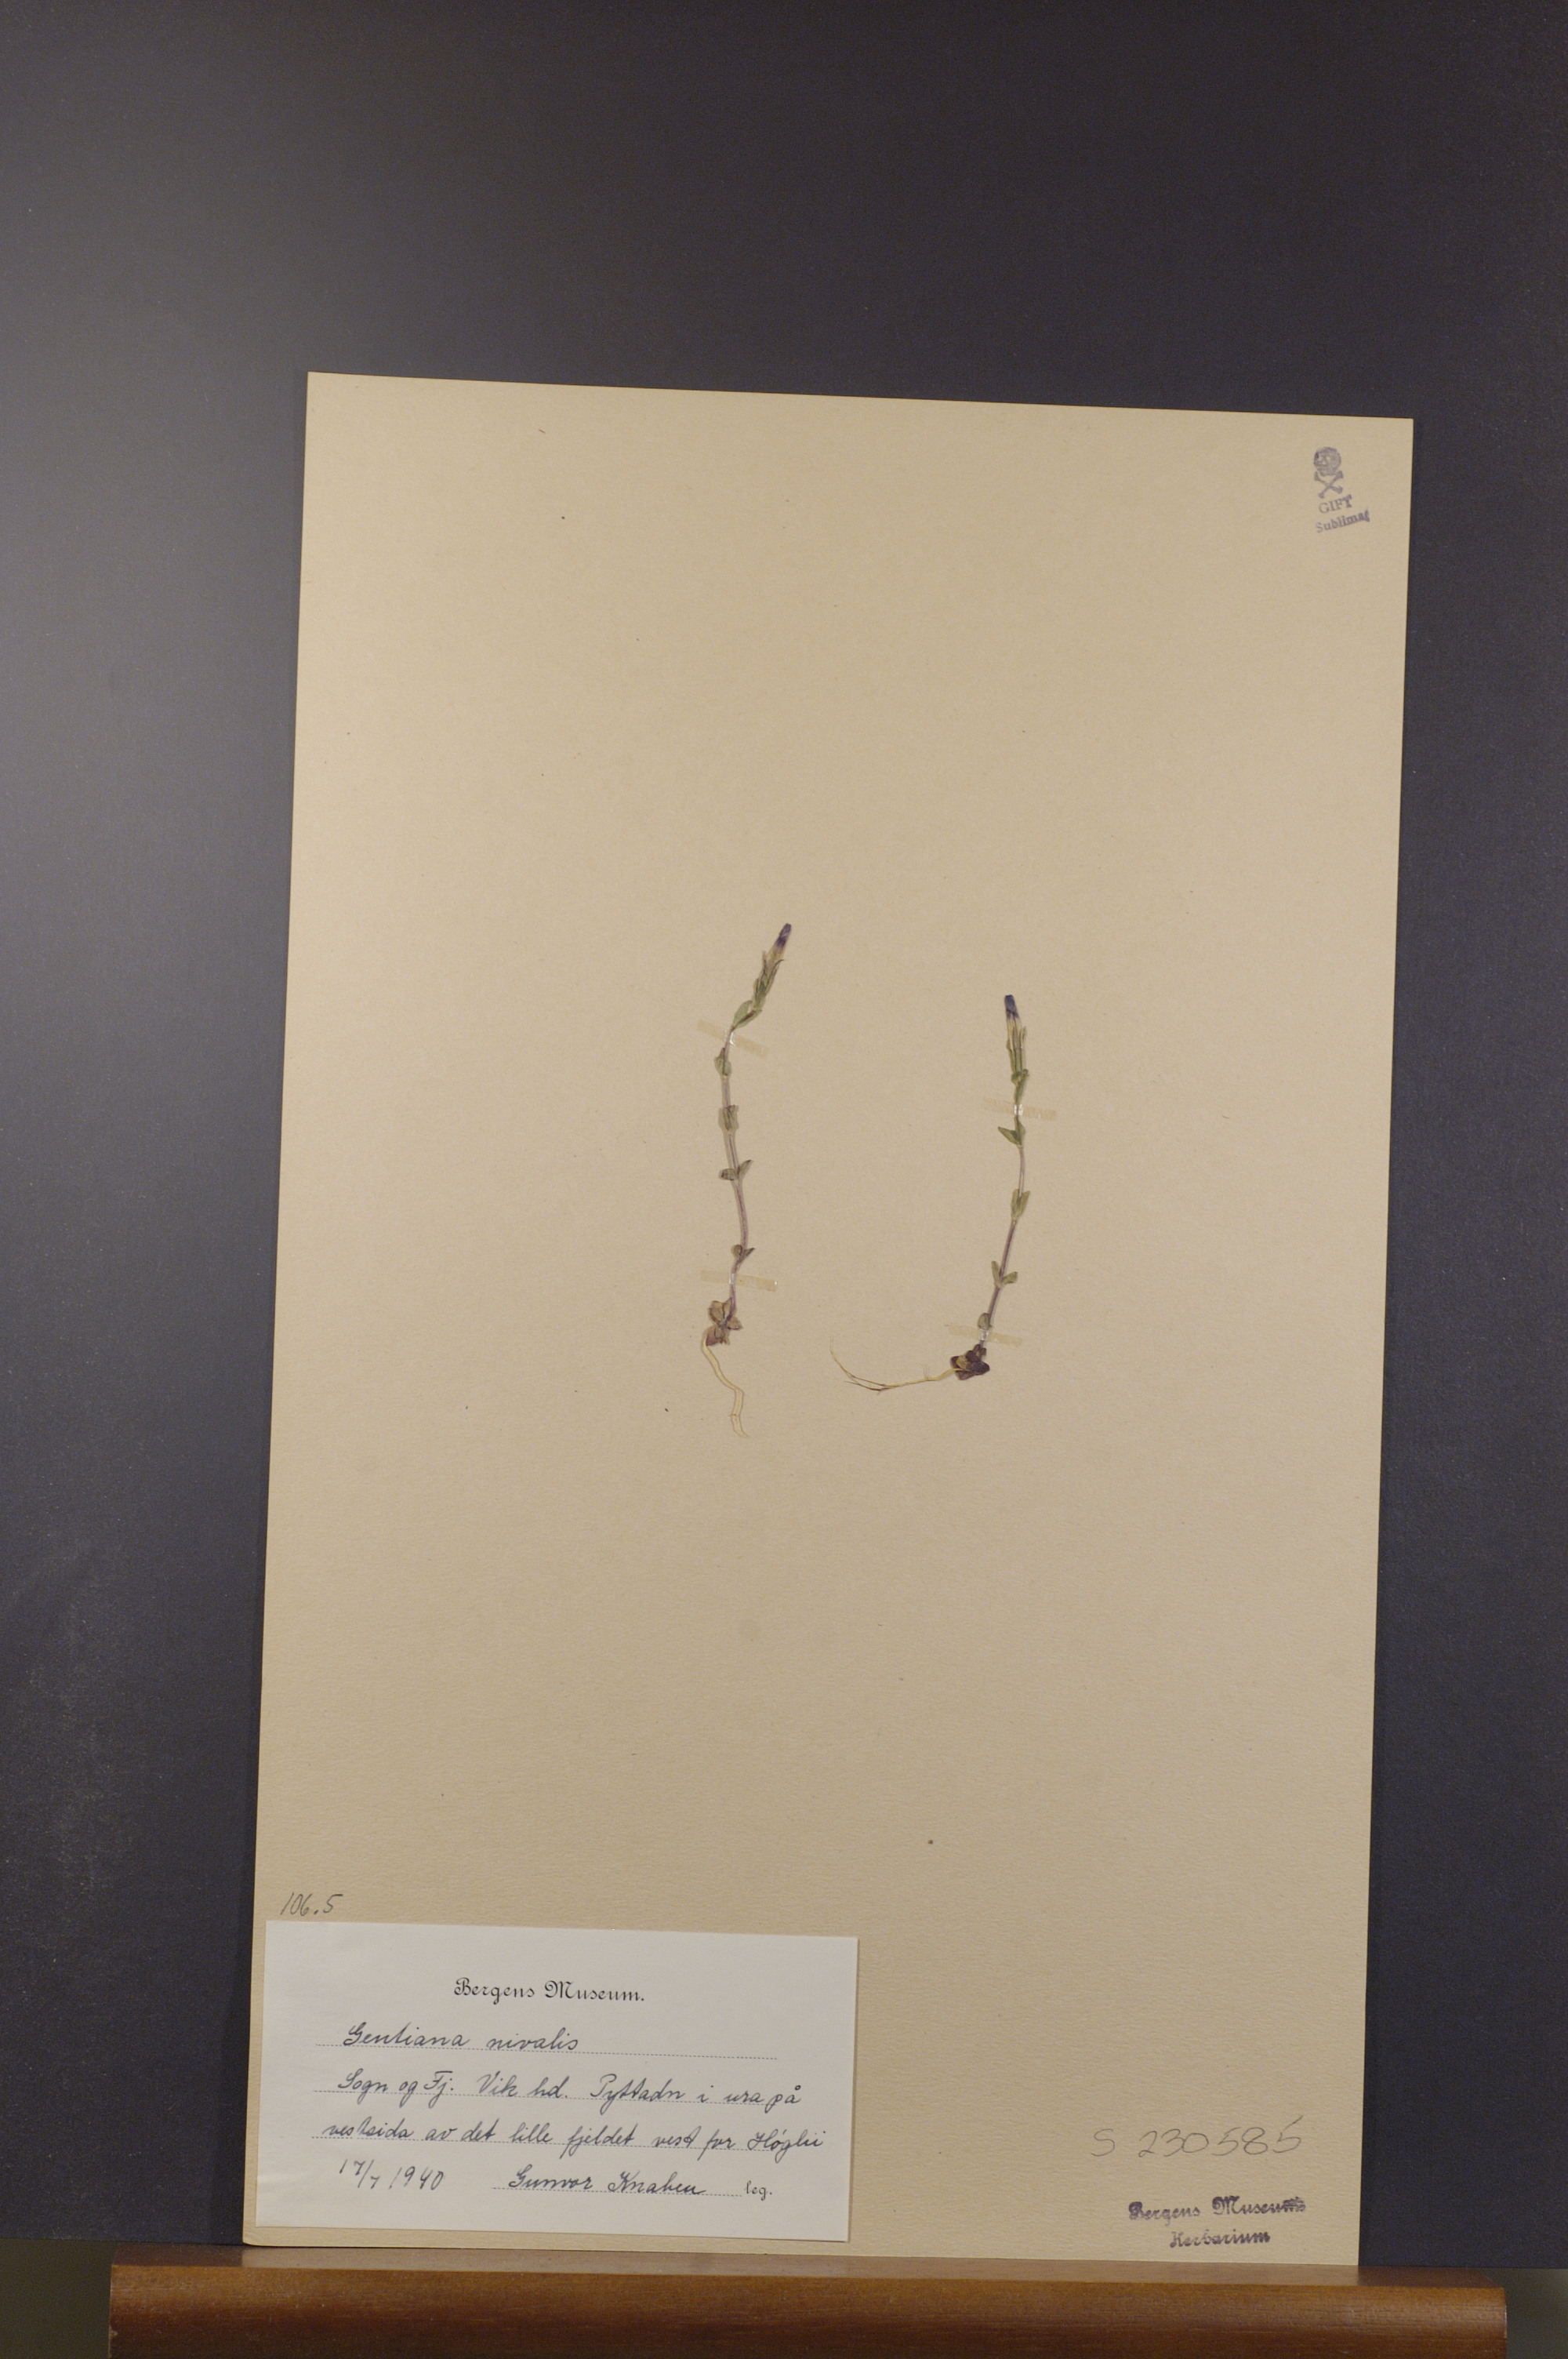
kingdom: Plantae
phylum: Tracheophyta
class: Magnoliopsida
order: Gentianales
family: Gentianaceae
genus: Gentiana
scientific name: Gentiana nivalis
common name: Alpine gentian
